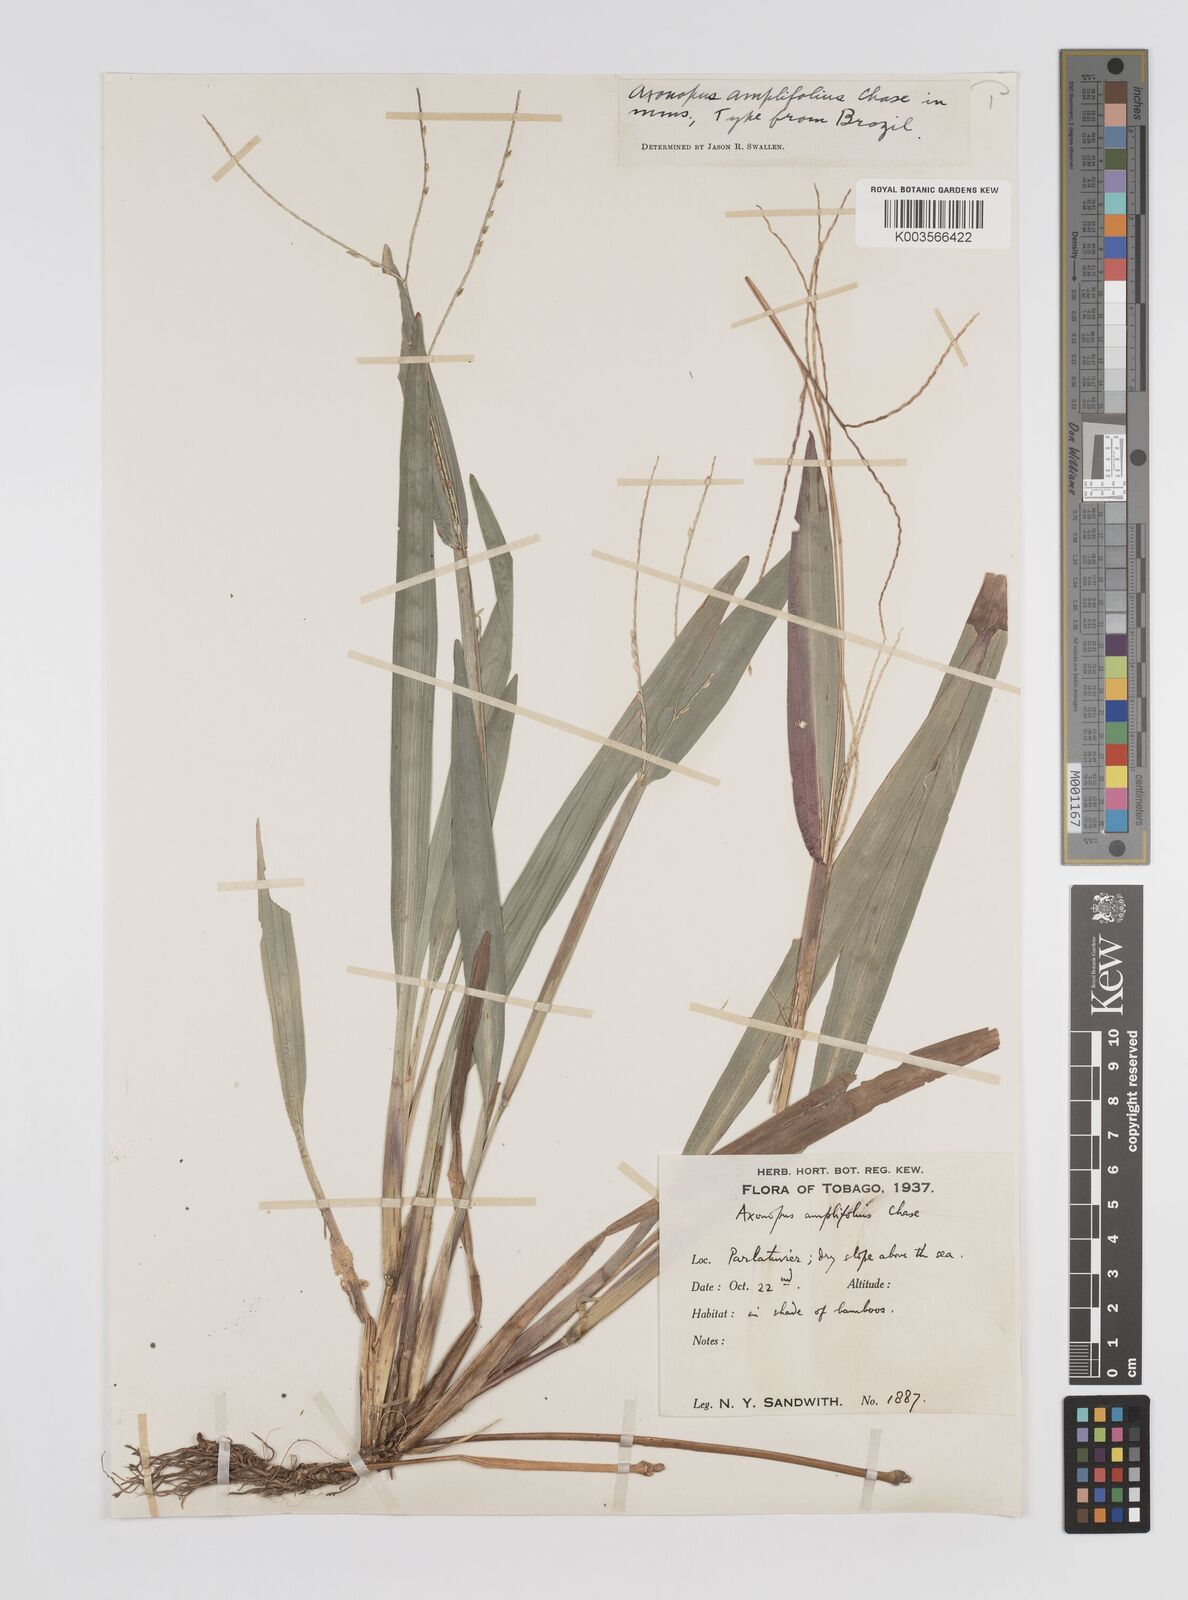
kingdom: Plantae
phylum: Tracheophyta
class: Liliopsida
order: Poales
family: Poaceae
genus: Axonopus
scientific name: Axonopus compressus
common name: American carpet grass
